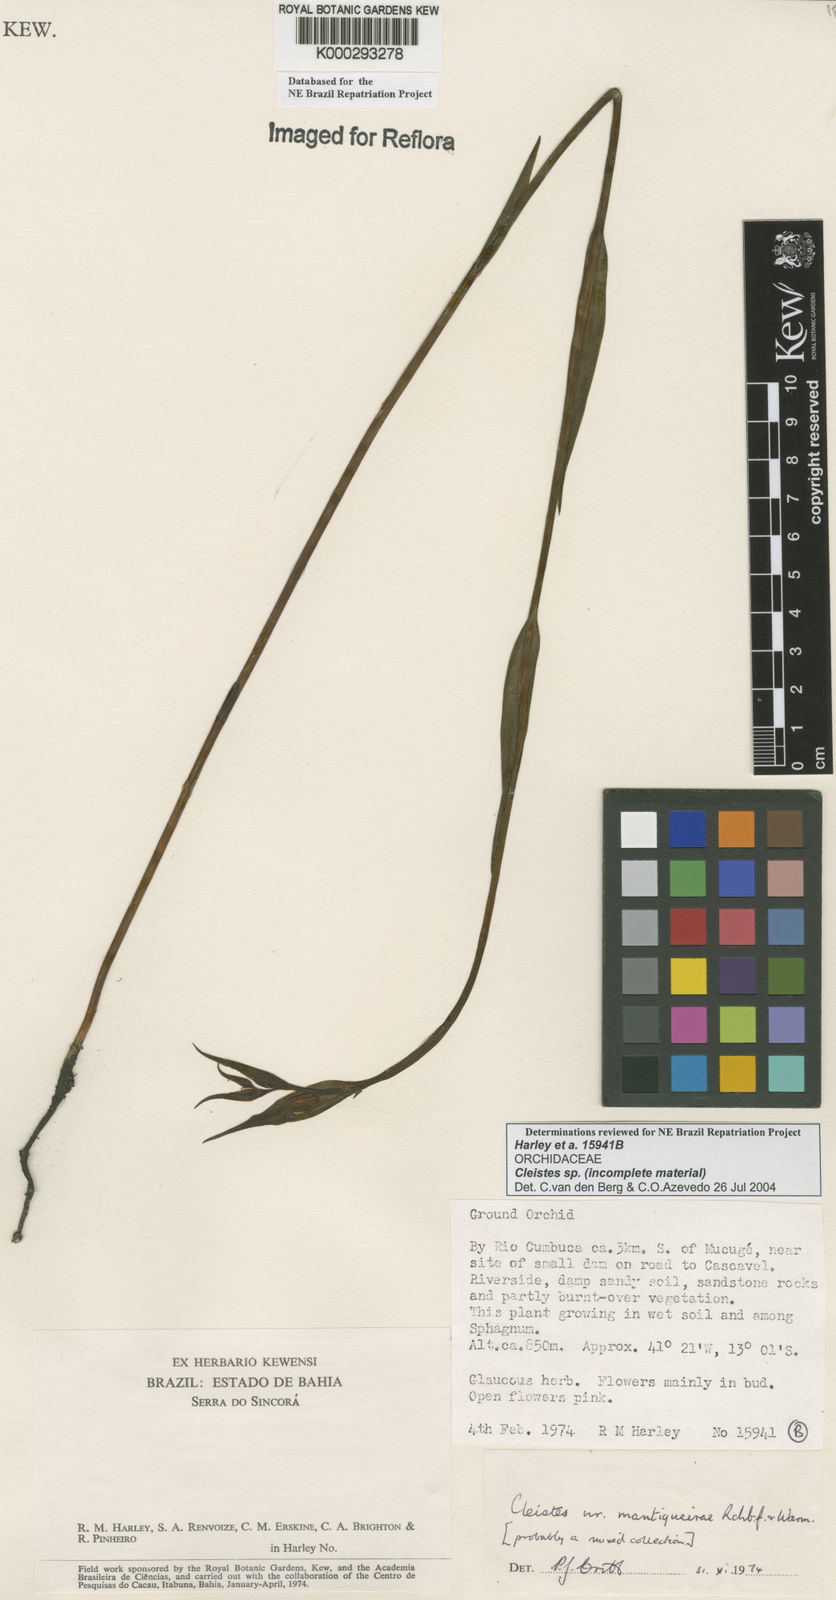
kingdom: Plantae
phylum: Tracheophyta
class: Liliopsida
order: Asparagales
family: Orchidaceae
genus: Cleistes
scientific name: Cleistes
